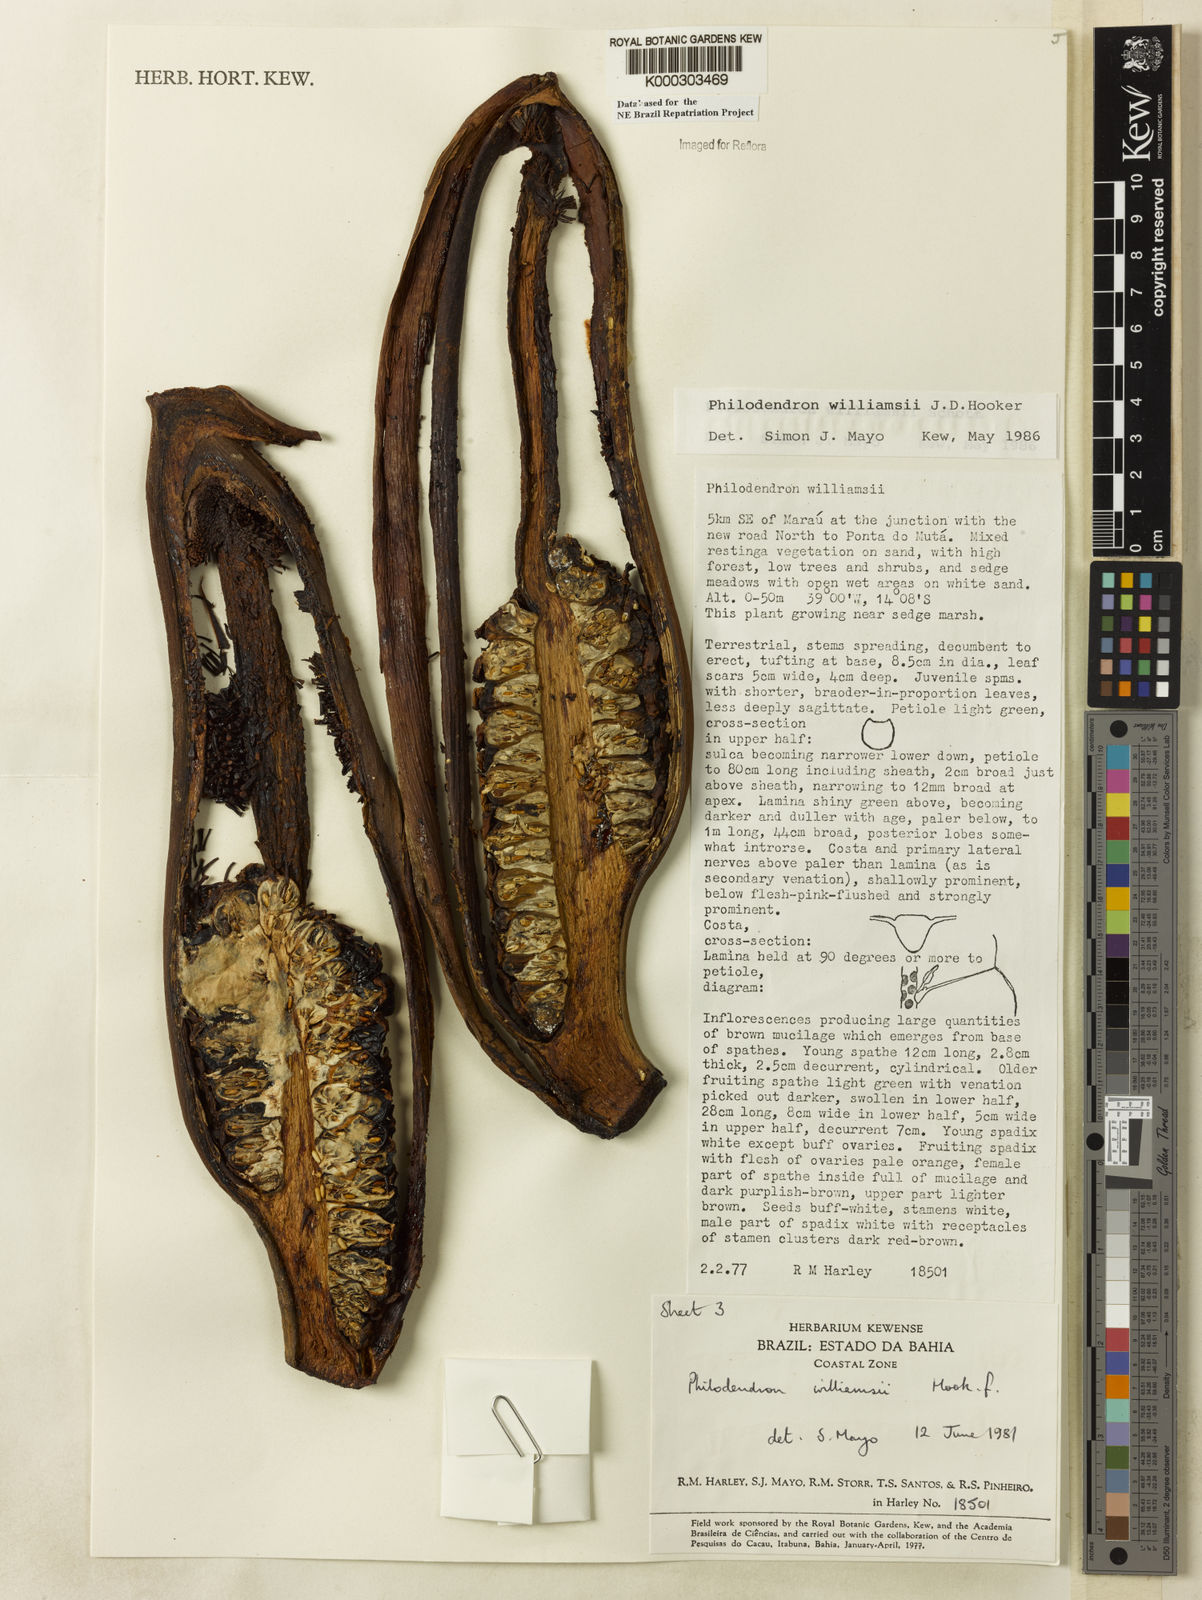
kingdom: Plantae
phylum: Tracheophyta
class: Liliopsida
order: Alismatales
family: Araceae
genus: Thaumatophyllum
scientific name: Thaumatophyllum williamsii
